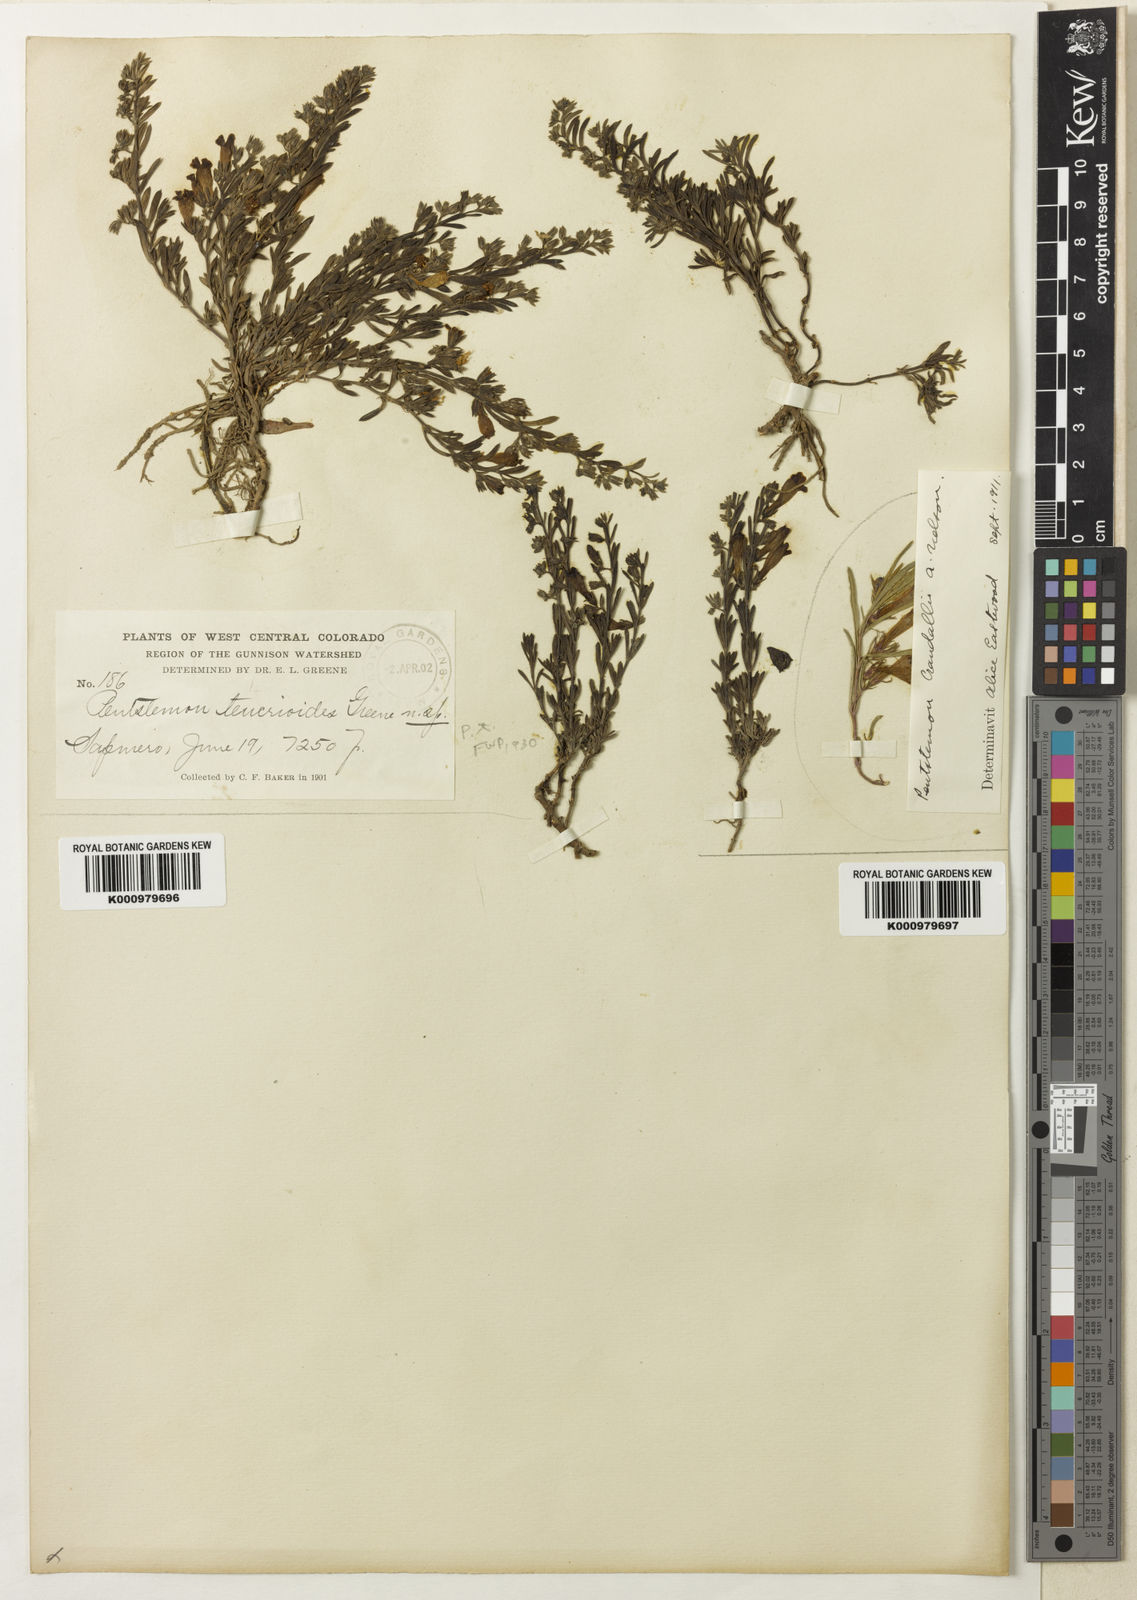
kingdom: Plantae
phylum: Tracheophyta
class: Magnoliopsida
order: Lamiales
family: Plantaginaceae
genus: Penstemon
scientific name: Penstemon caespitosus
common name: Mat penstemon
